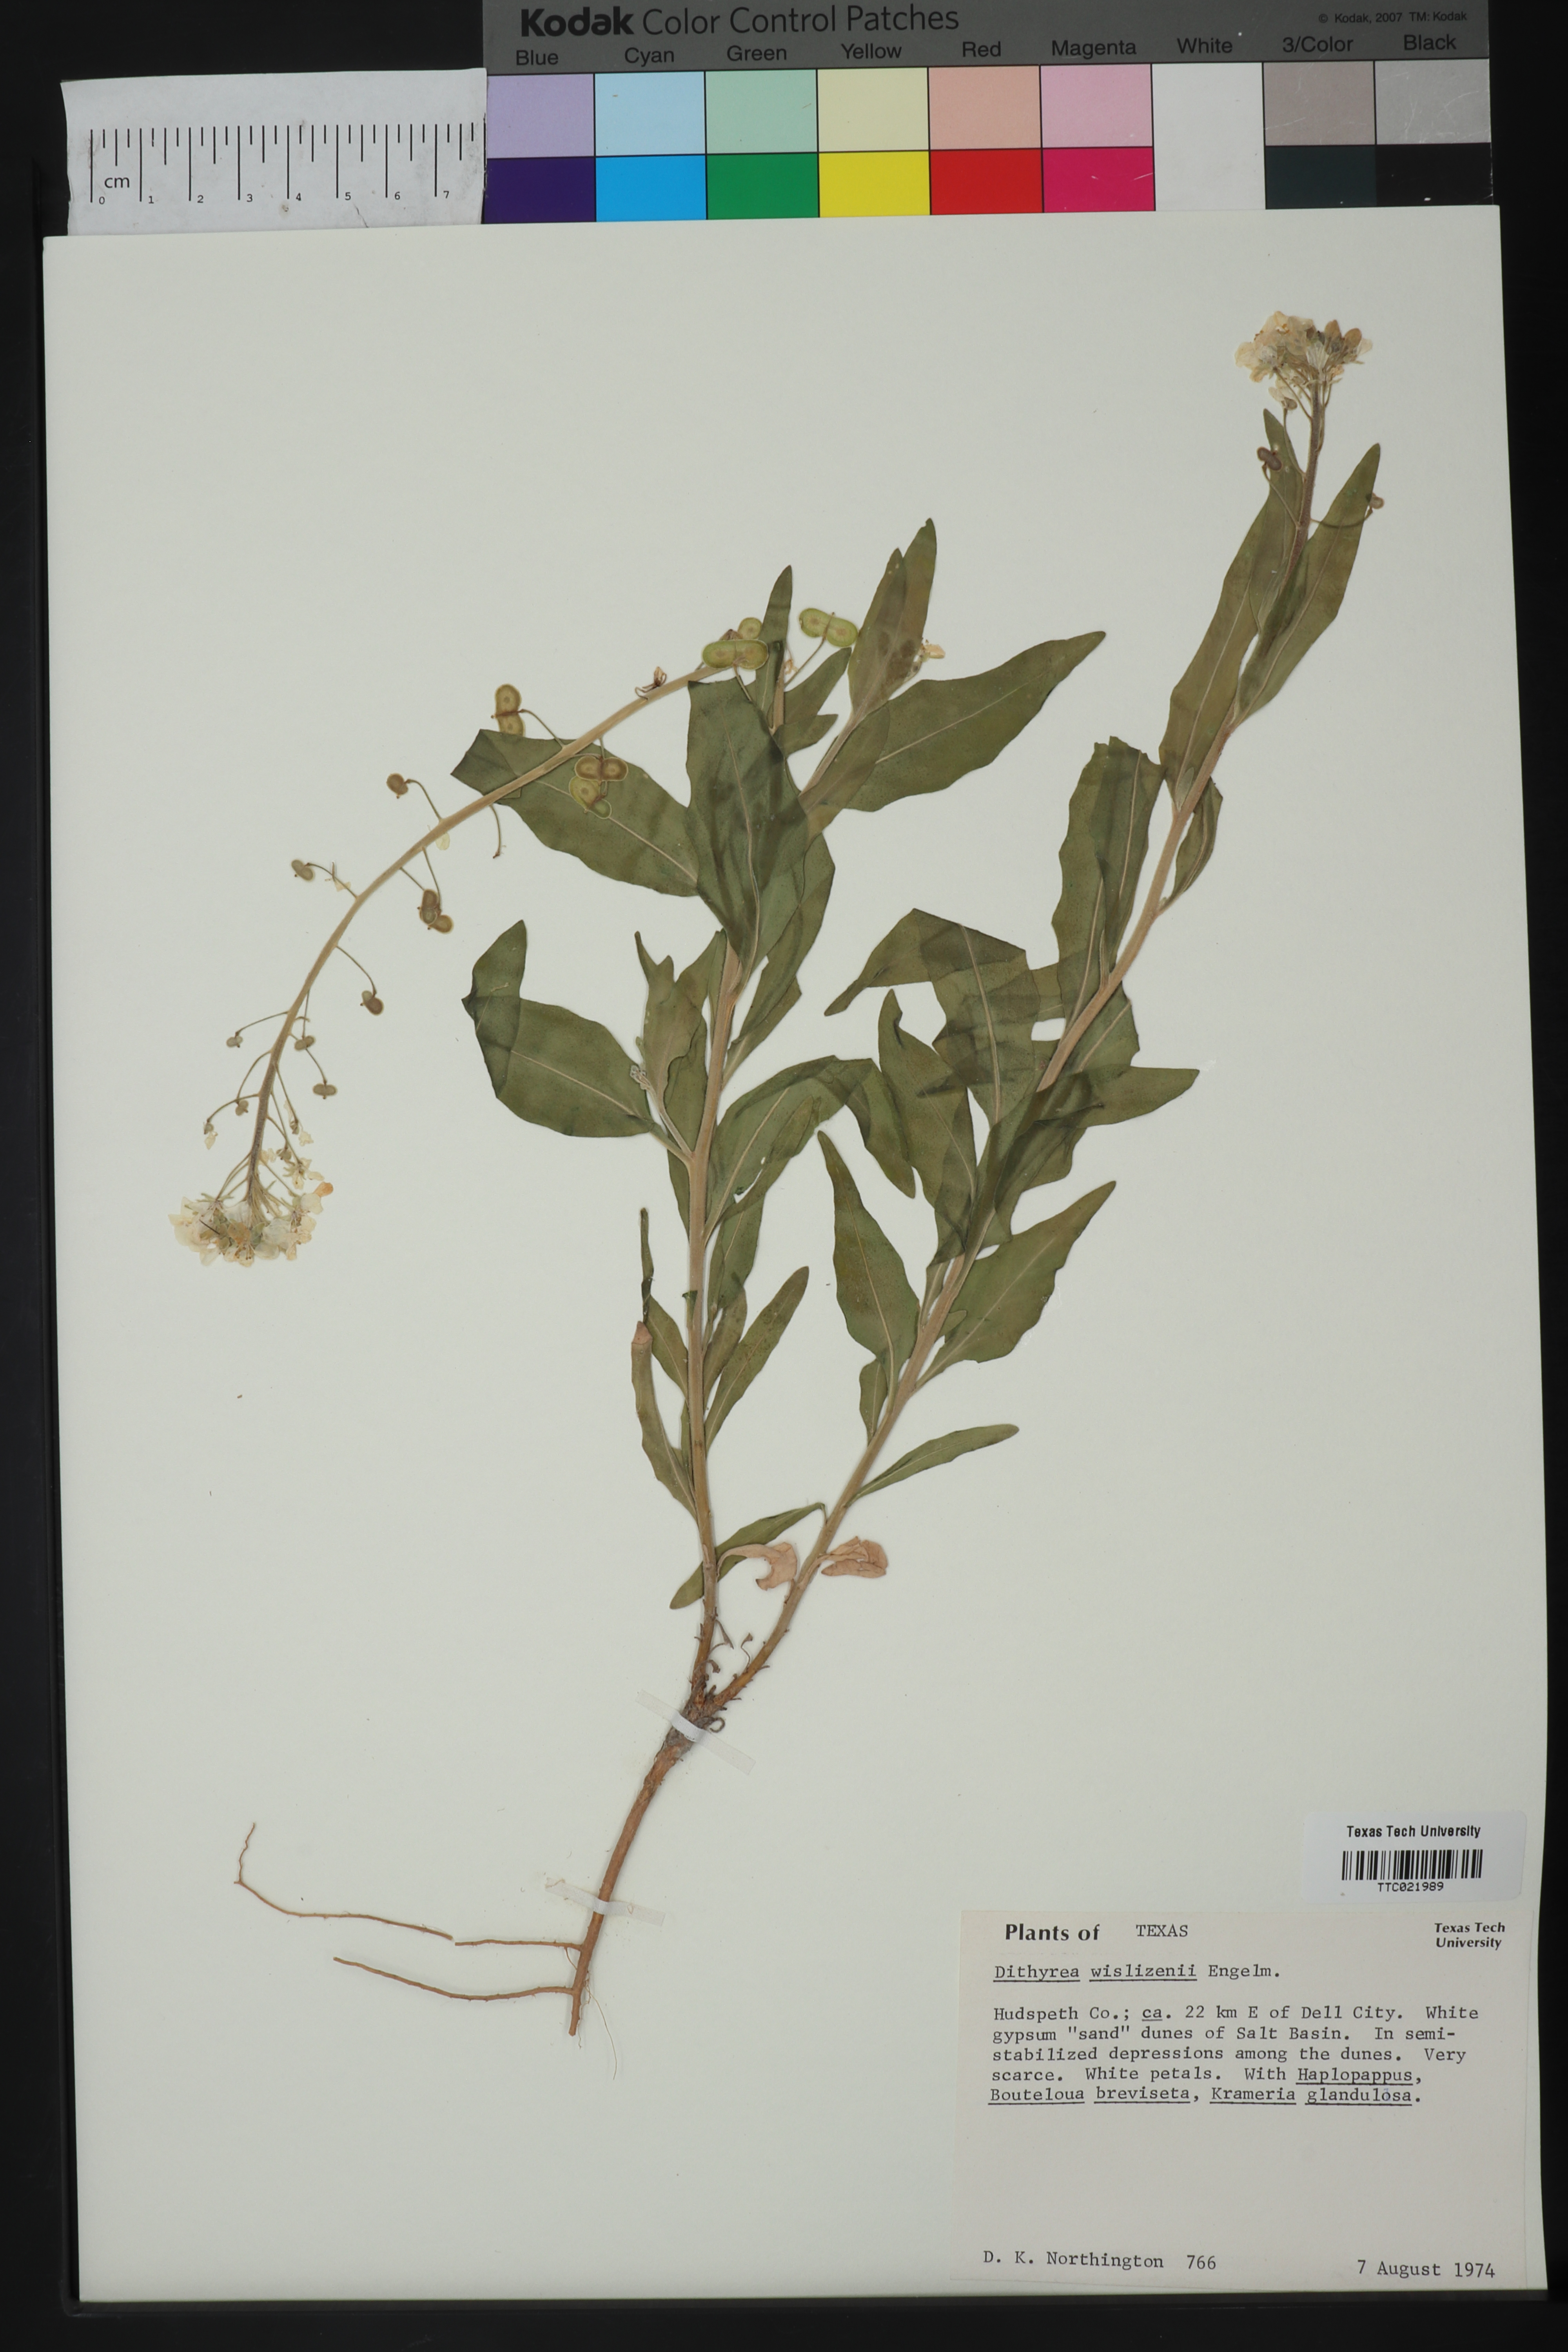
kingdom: Plantae
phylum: Tracheophyta
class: Magnoliopsida
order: Brassicales
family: Brassicaceae
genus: Dimorphocarpa
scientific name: Dimorphocarpa wislizenii
